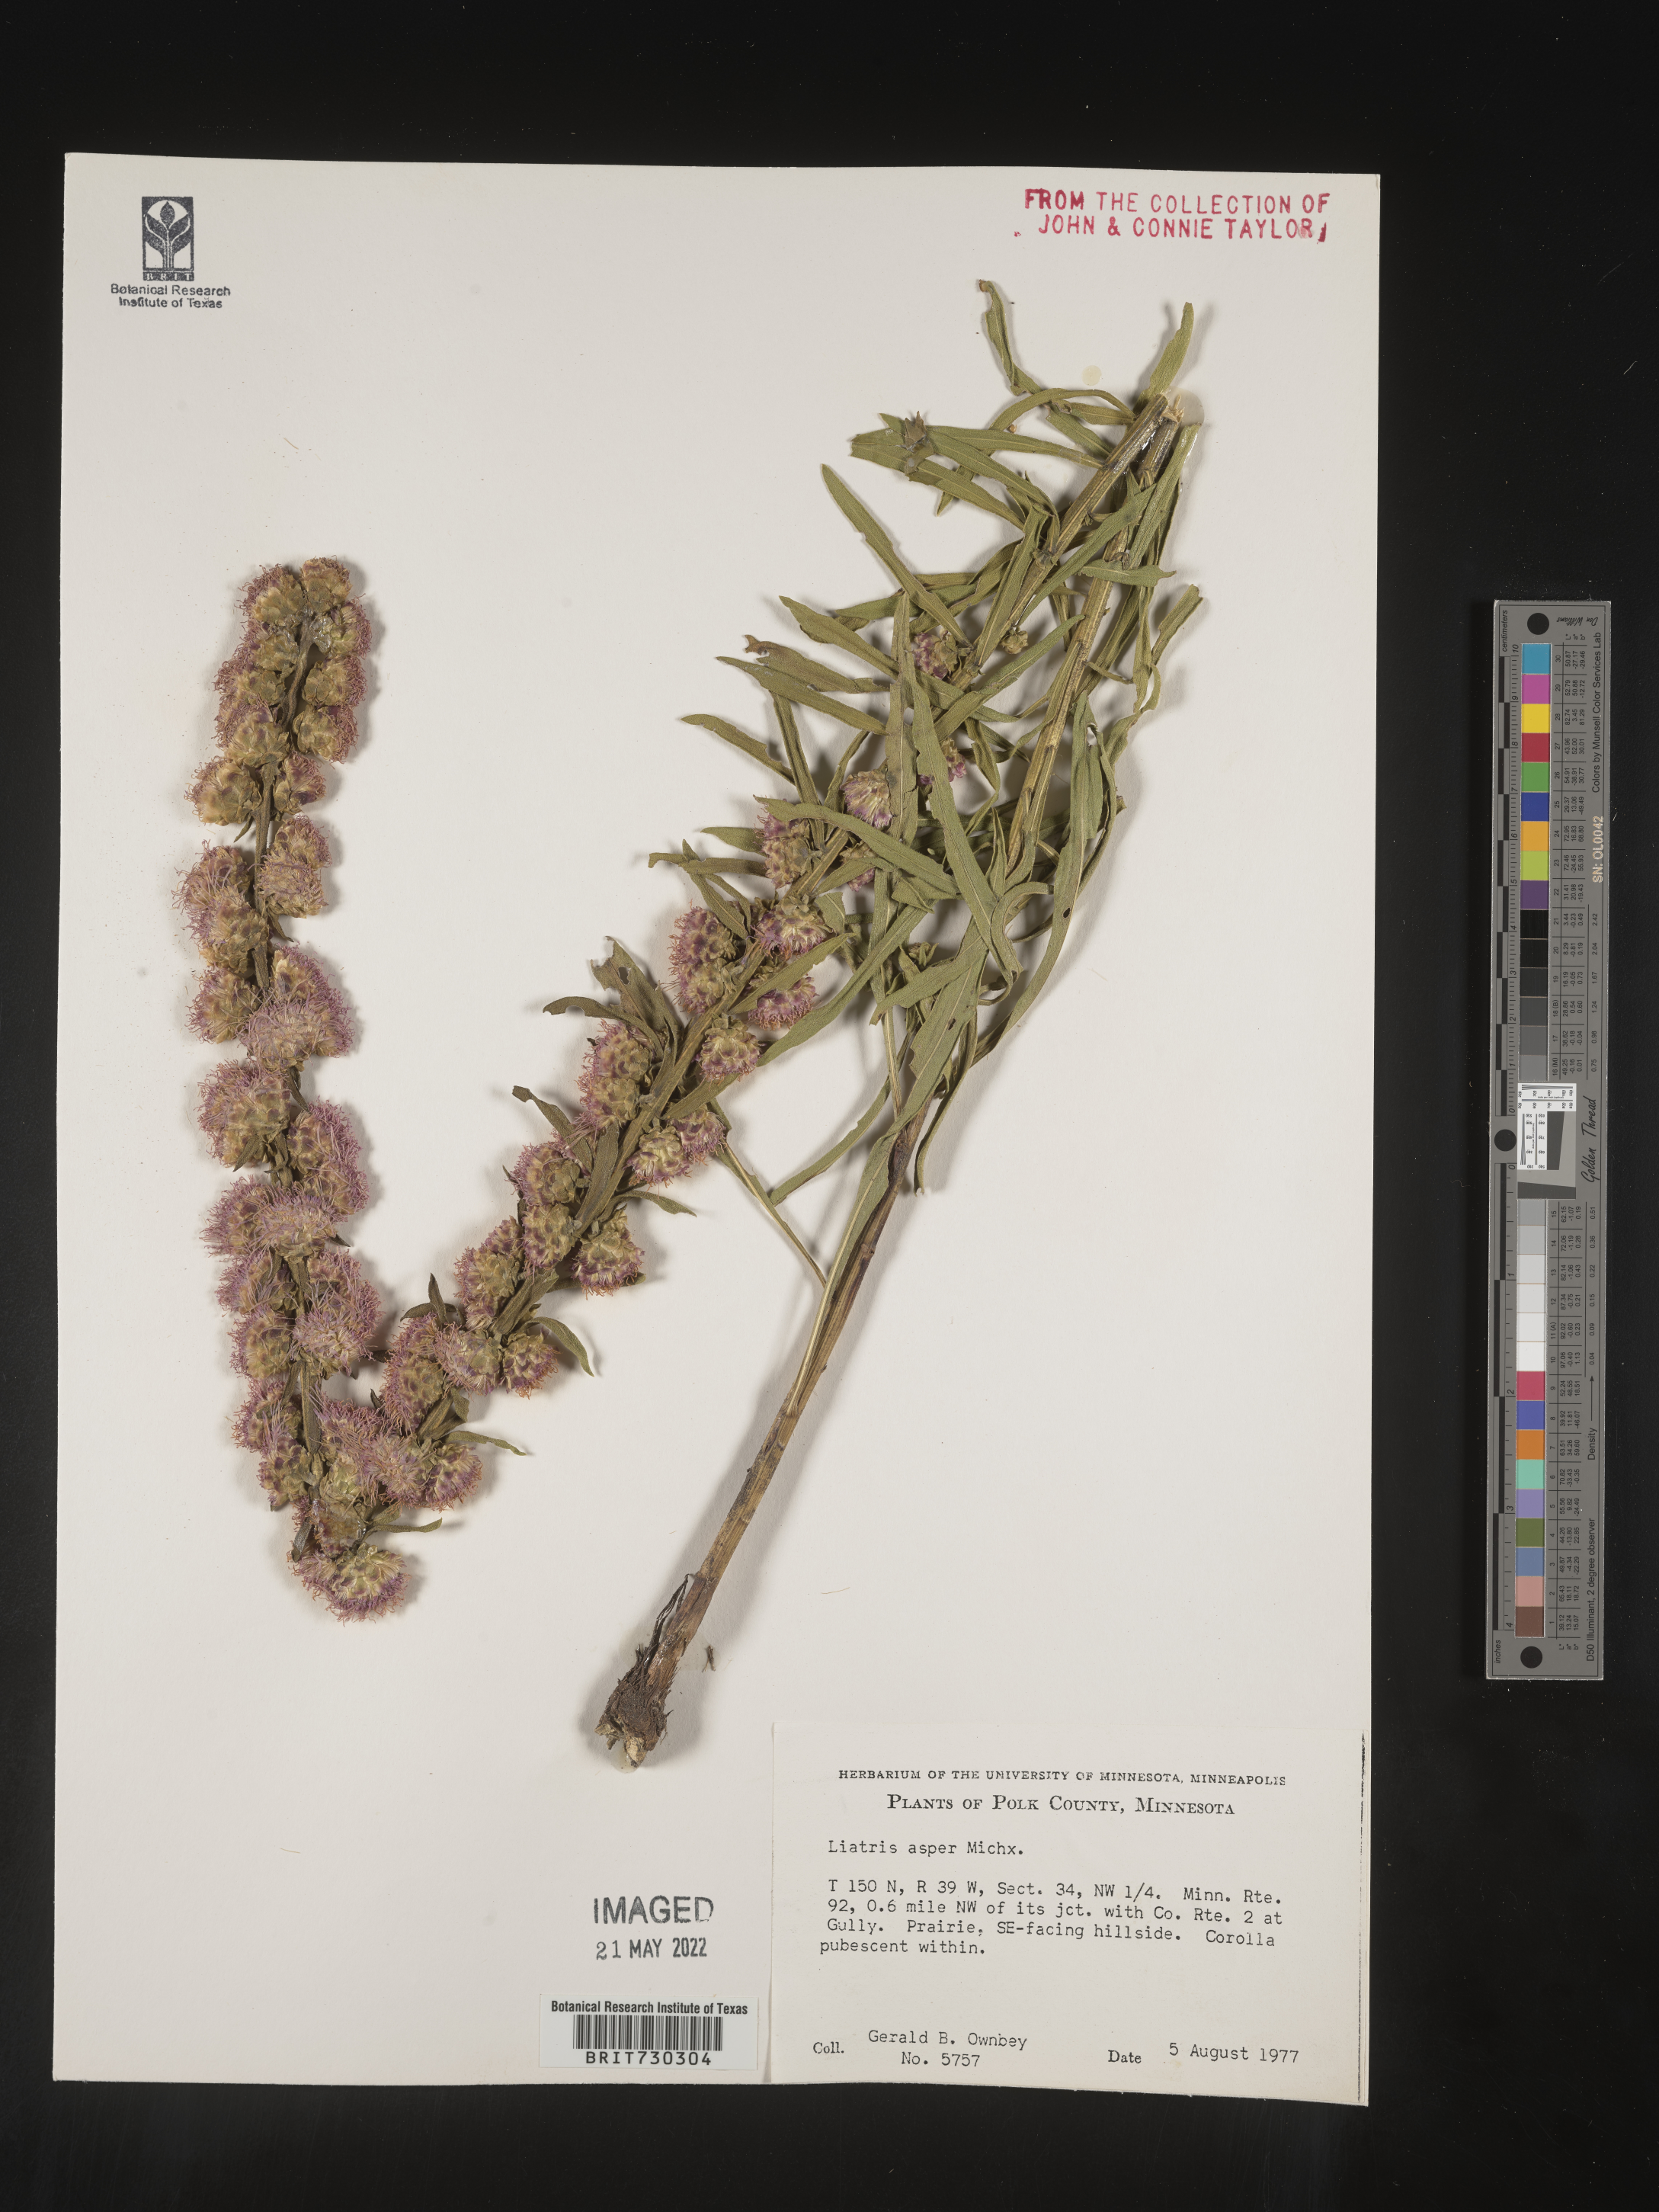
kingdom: Plantae
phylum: Tracheophyta
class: Magnoliopsida
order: Asterales
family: Asteraceae
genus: Liatris
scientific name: Liatris aspera
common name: Lacerate blazing-star
